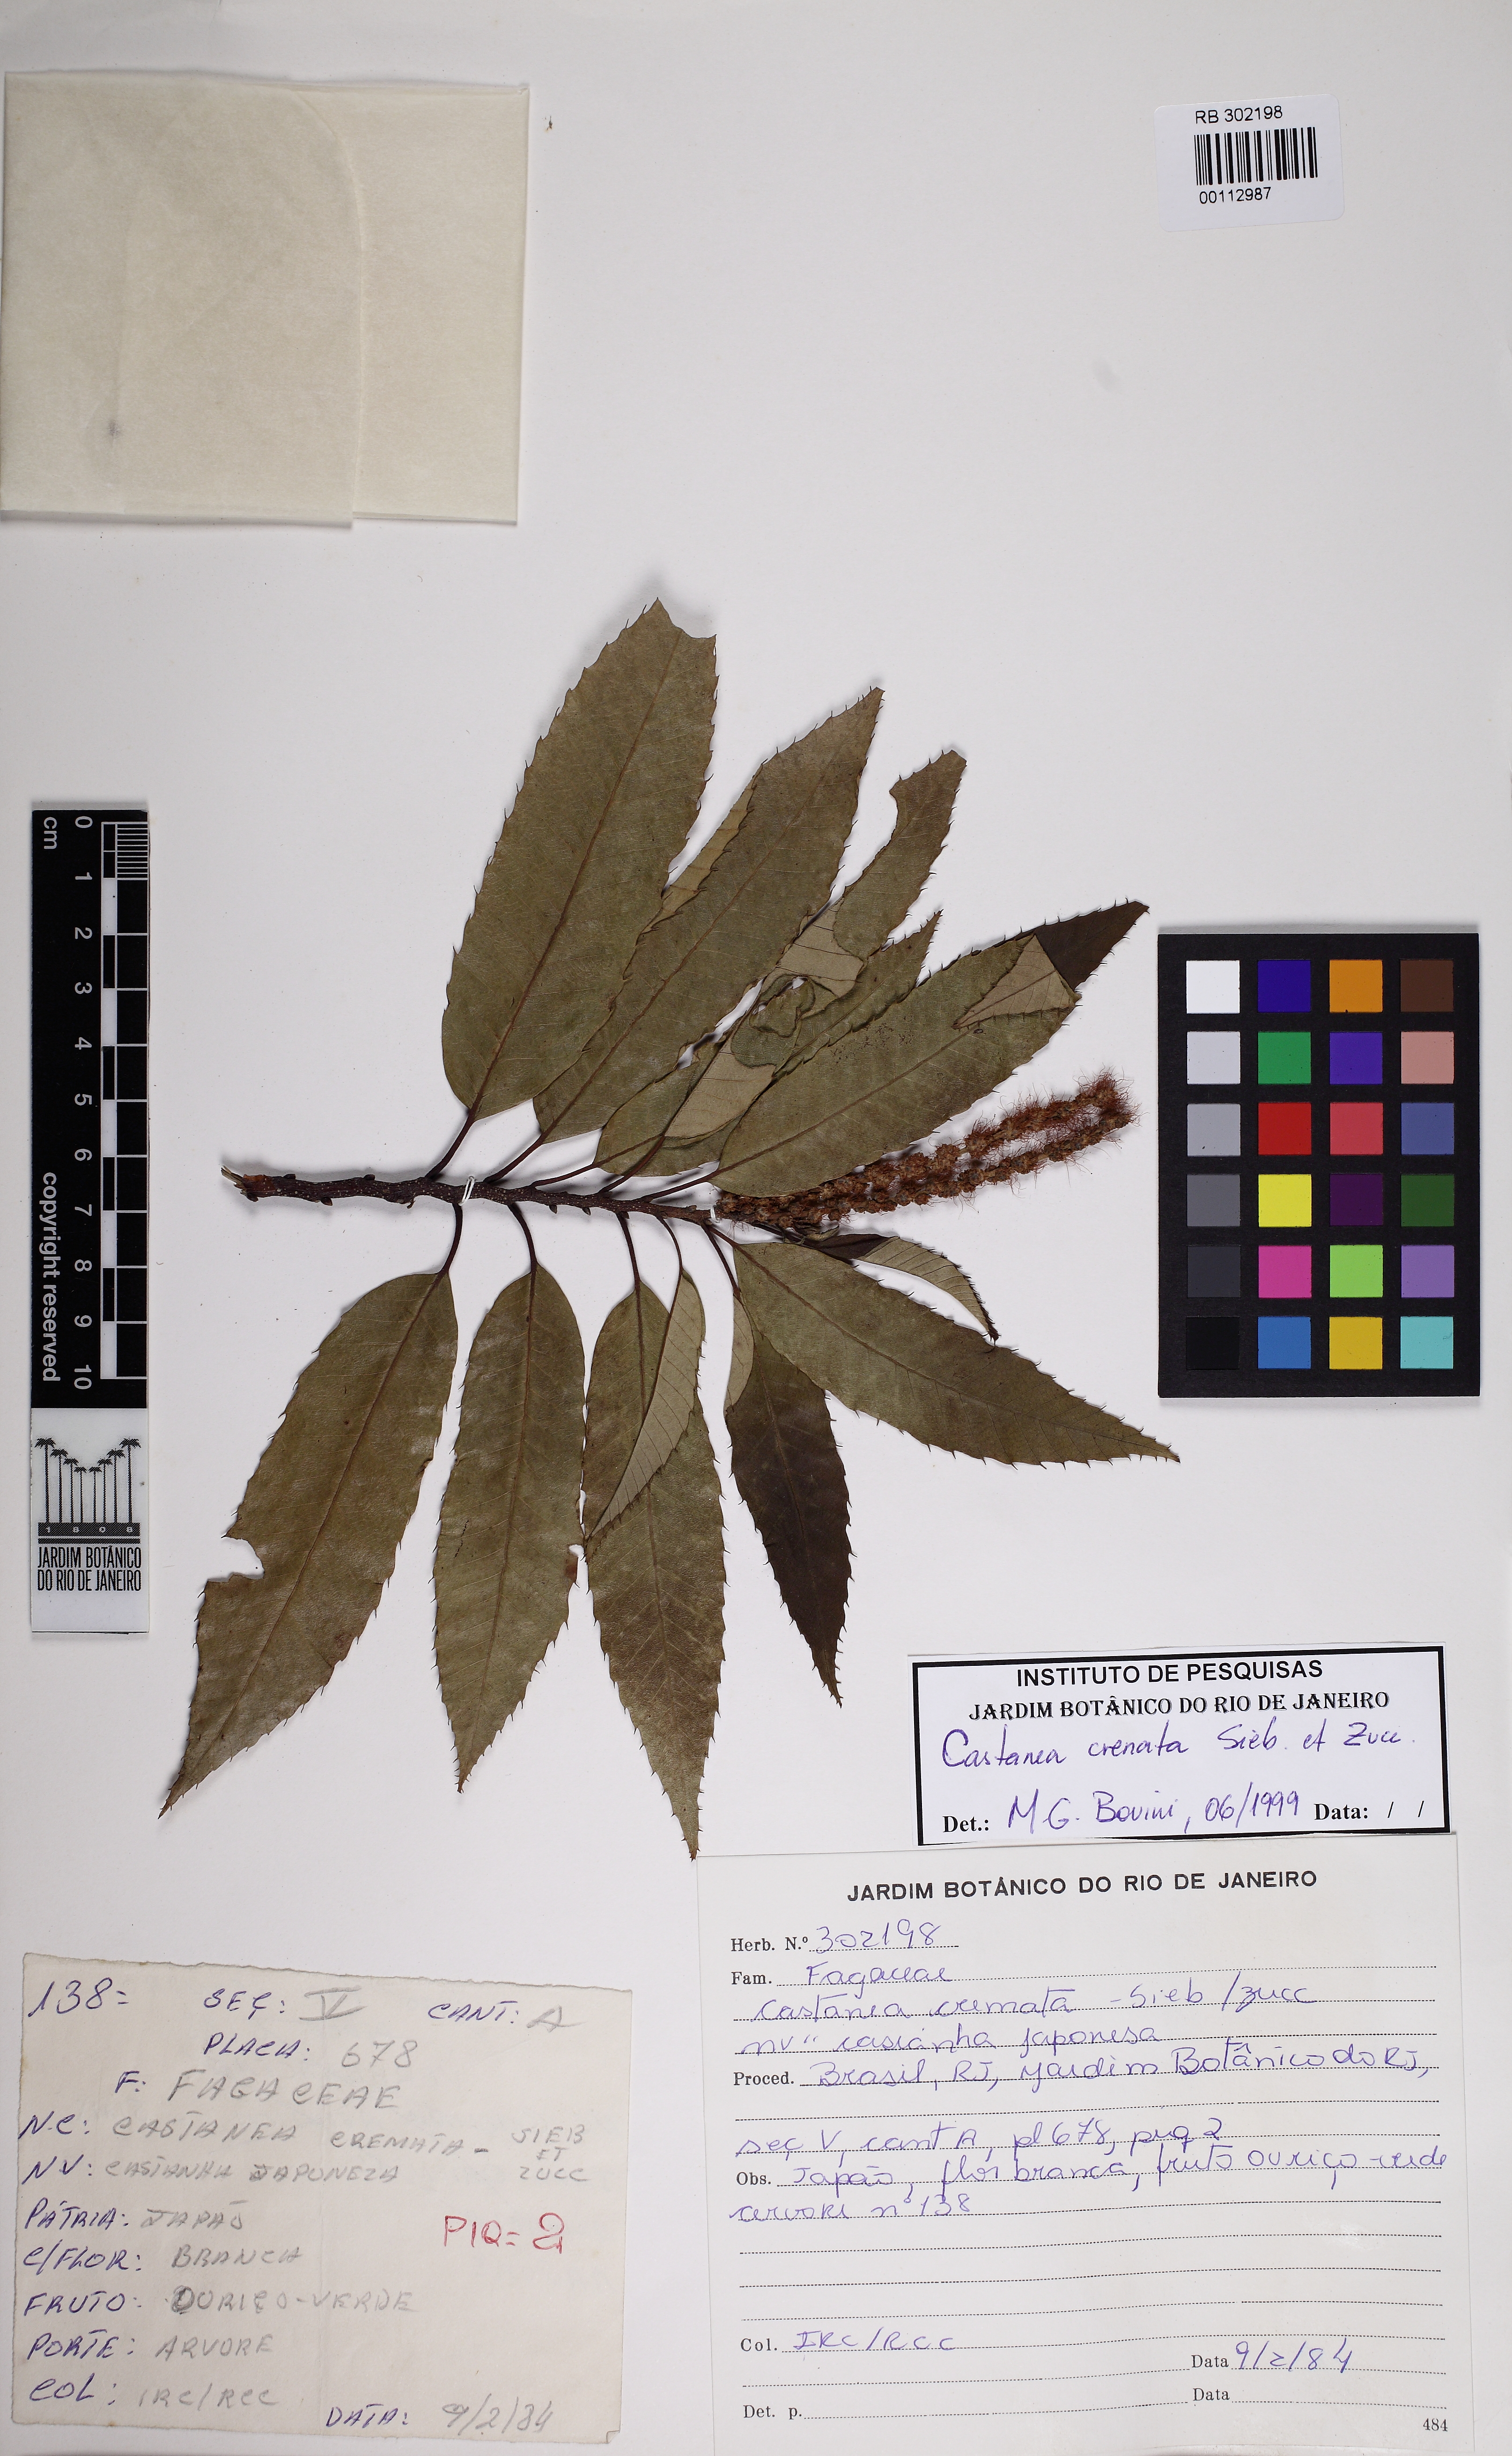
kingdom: Plantae
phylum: Tracheophyta
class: Magnoliopsida
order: Fagales
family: Fagaceae
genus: Castanea
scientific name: Castanea crenata
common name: Japanese chestnut
